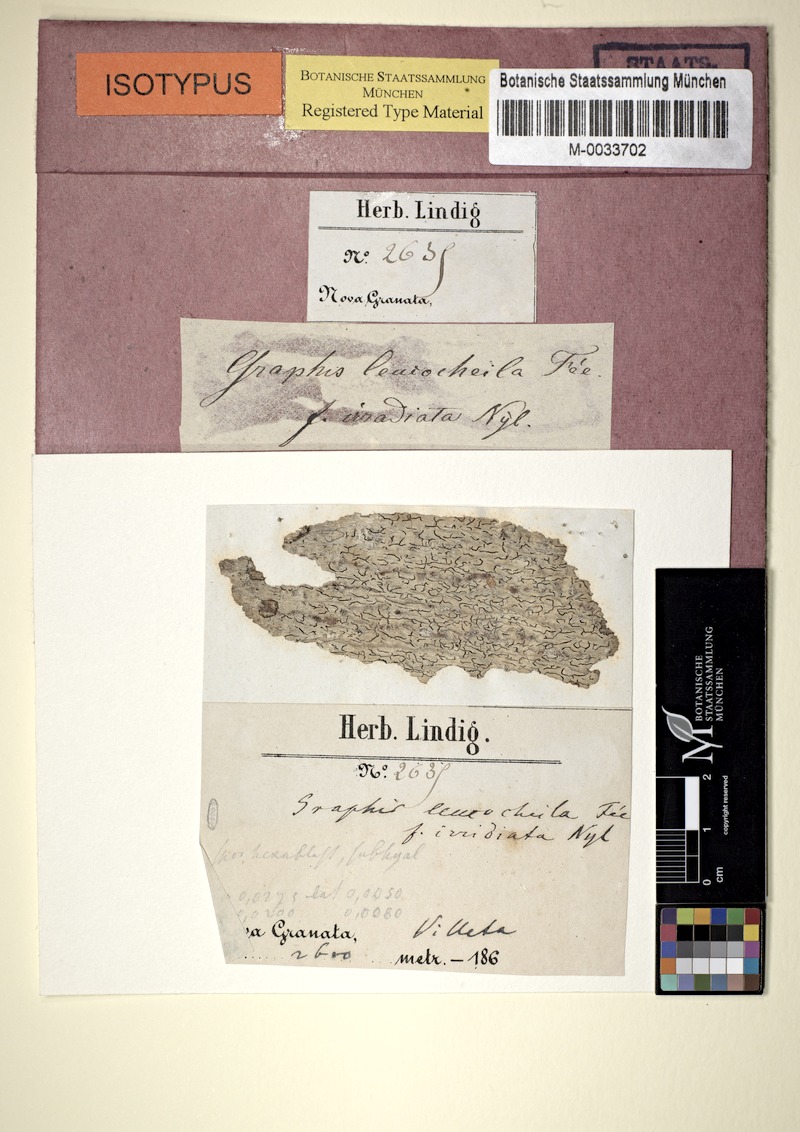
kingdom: Fungi
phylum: Ascomycota
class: Lecanoromycetes
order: Ostropales
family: Graphidaceae
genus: Phaeographis
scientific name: Phaeographis leucocheila
